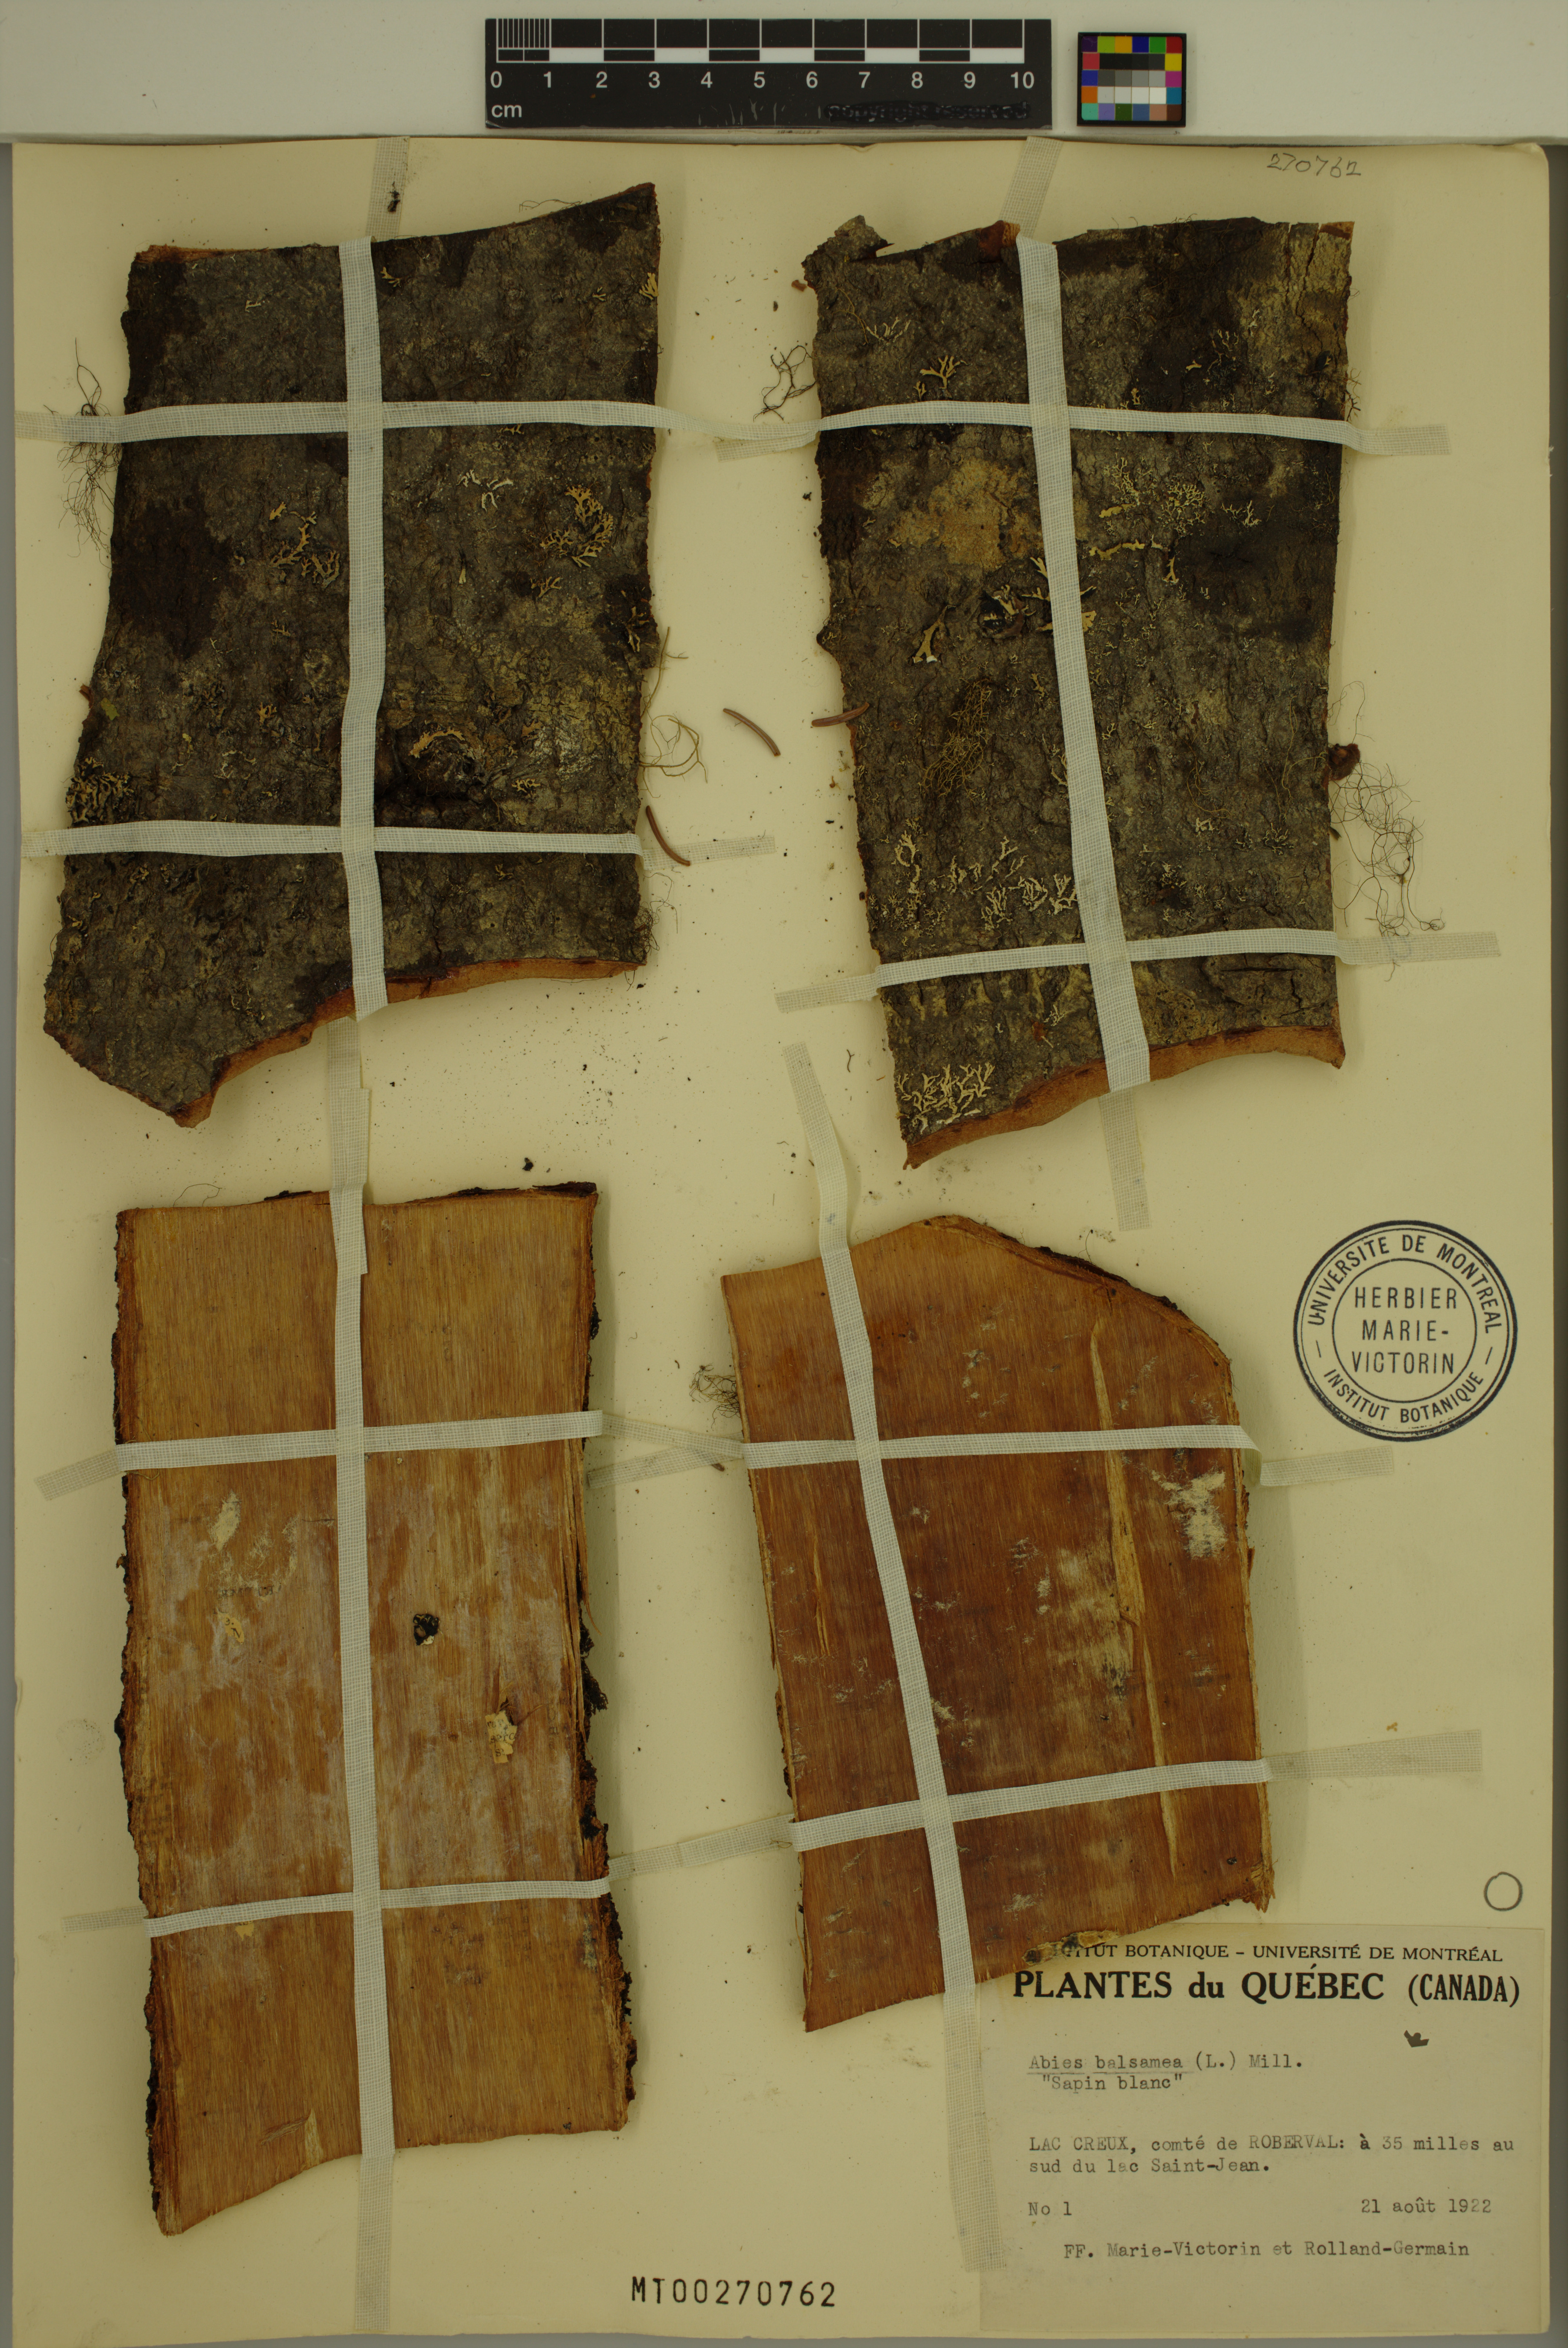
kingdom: Plantae
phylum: Tracheophyta
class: Pinopsida
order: Pinales
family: Pinaceae
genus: Abies
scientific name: Abies balsamea
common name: Balsam fir
